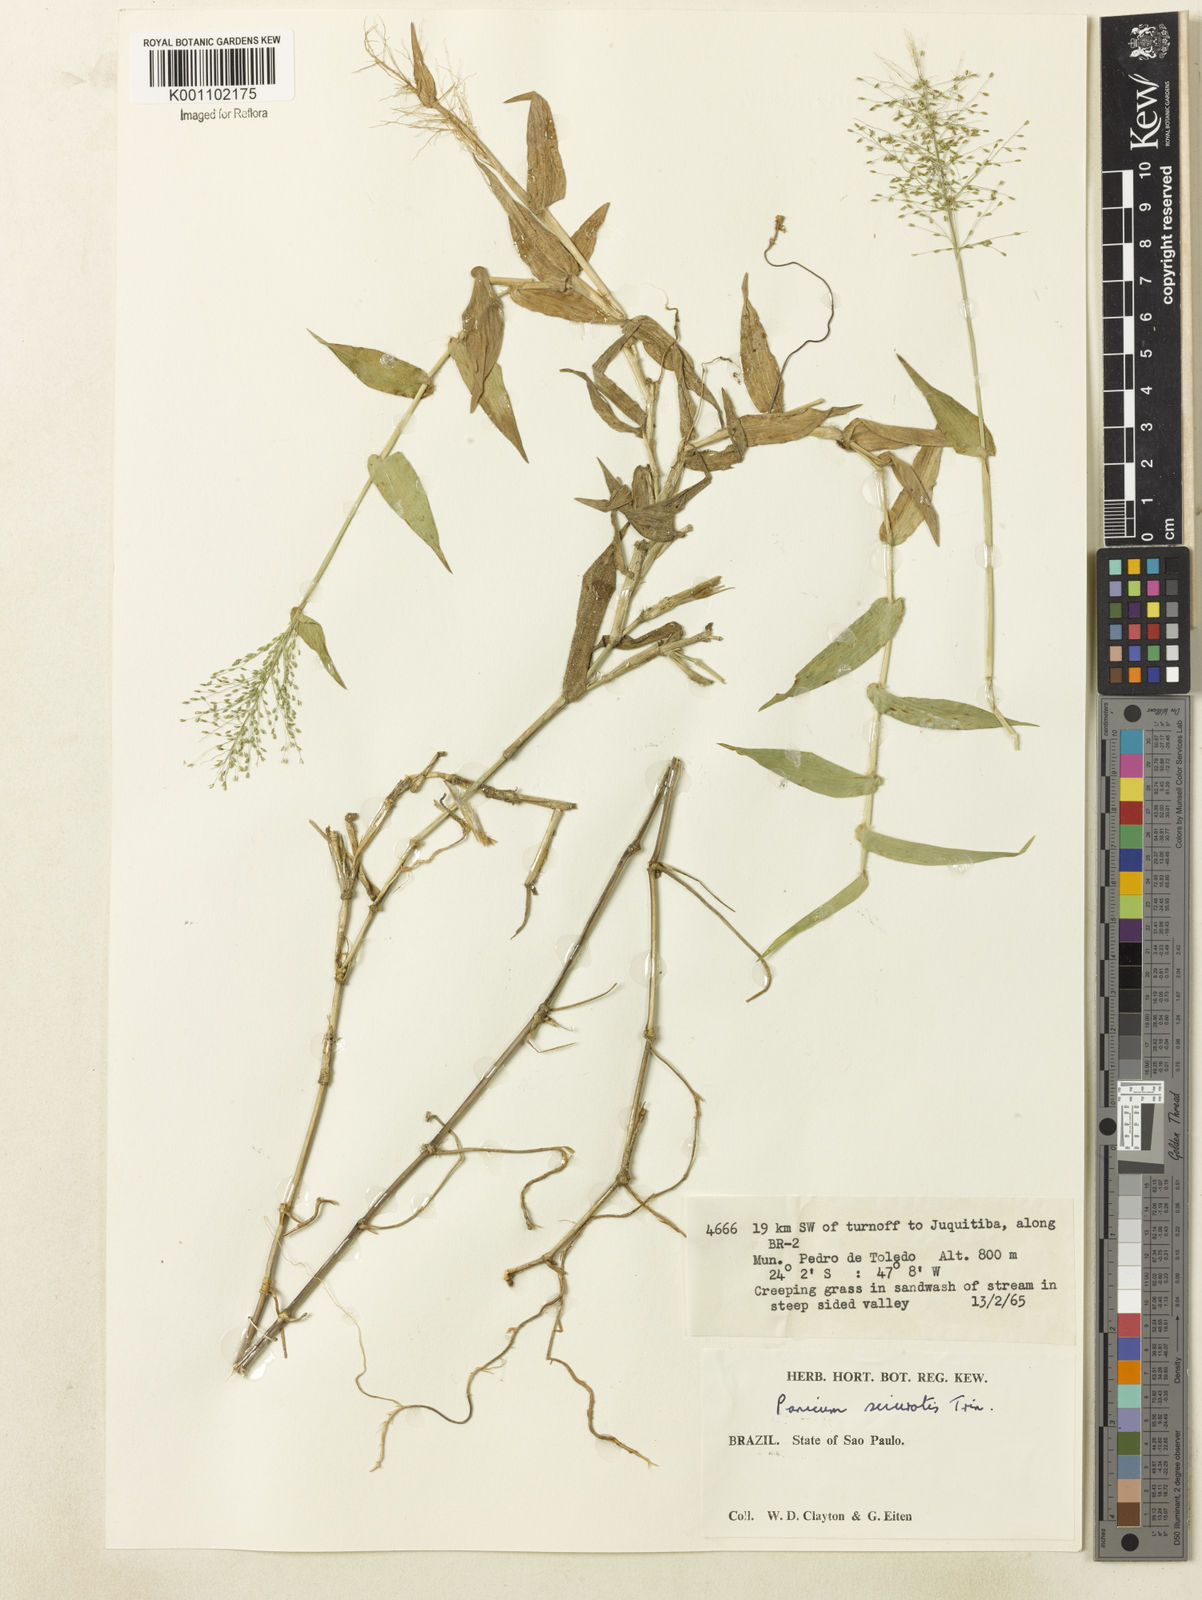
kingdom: Plantae
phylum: Tracheophyta
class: Liliopsida
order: Poales
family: Poaceae
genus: Dichanthelium
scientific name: Dichanthelium sciurotoides
